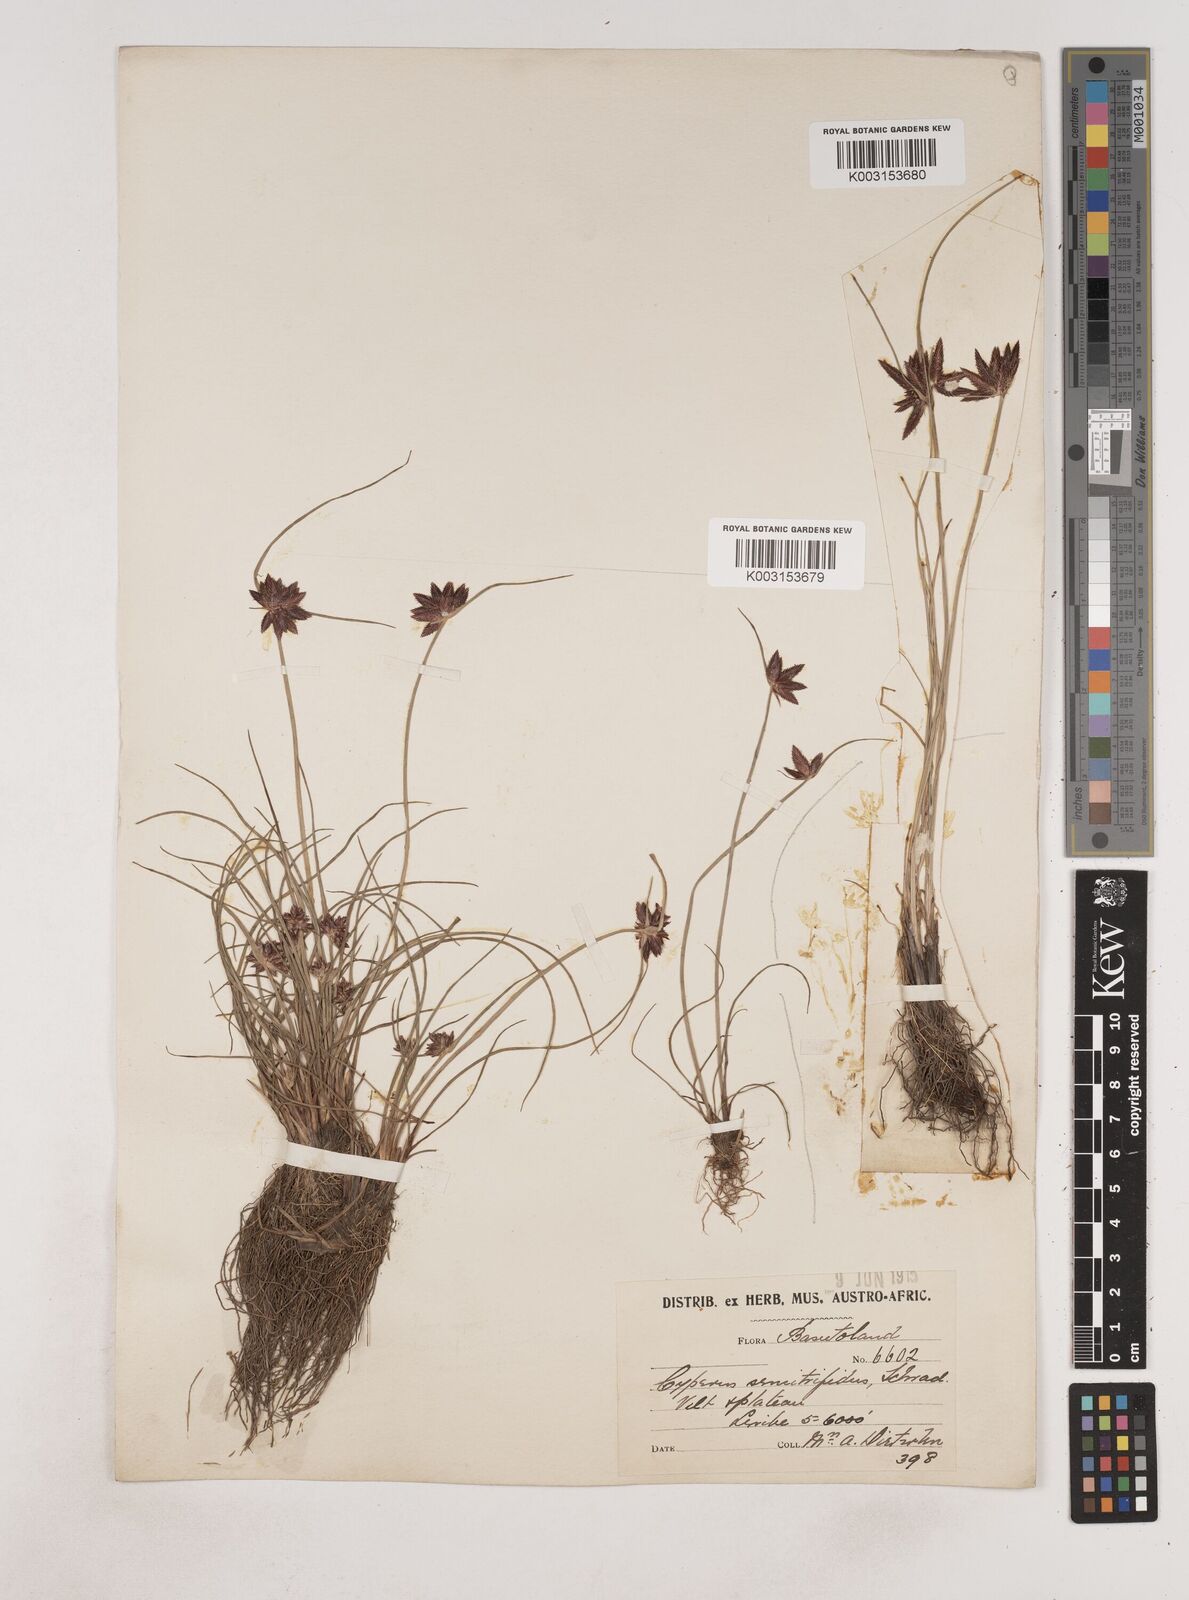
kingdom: Plantae
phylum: Tracheophyta
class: Liliopsida
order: Poales
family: Cyperaceae
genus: Cyperus
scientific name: Cyperus semitrifidus
